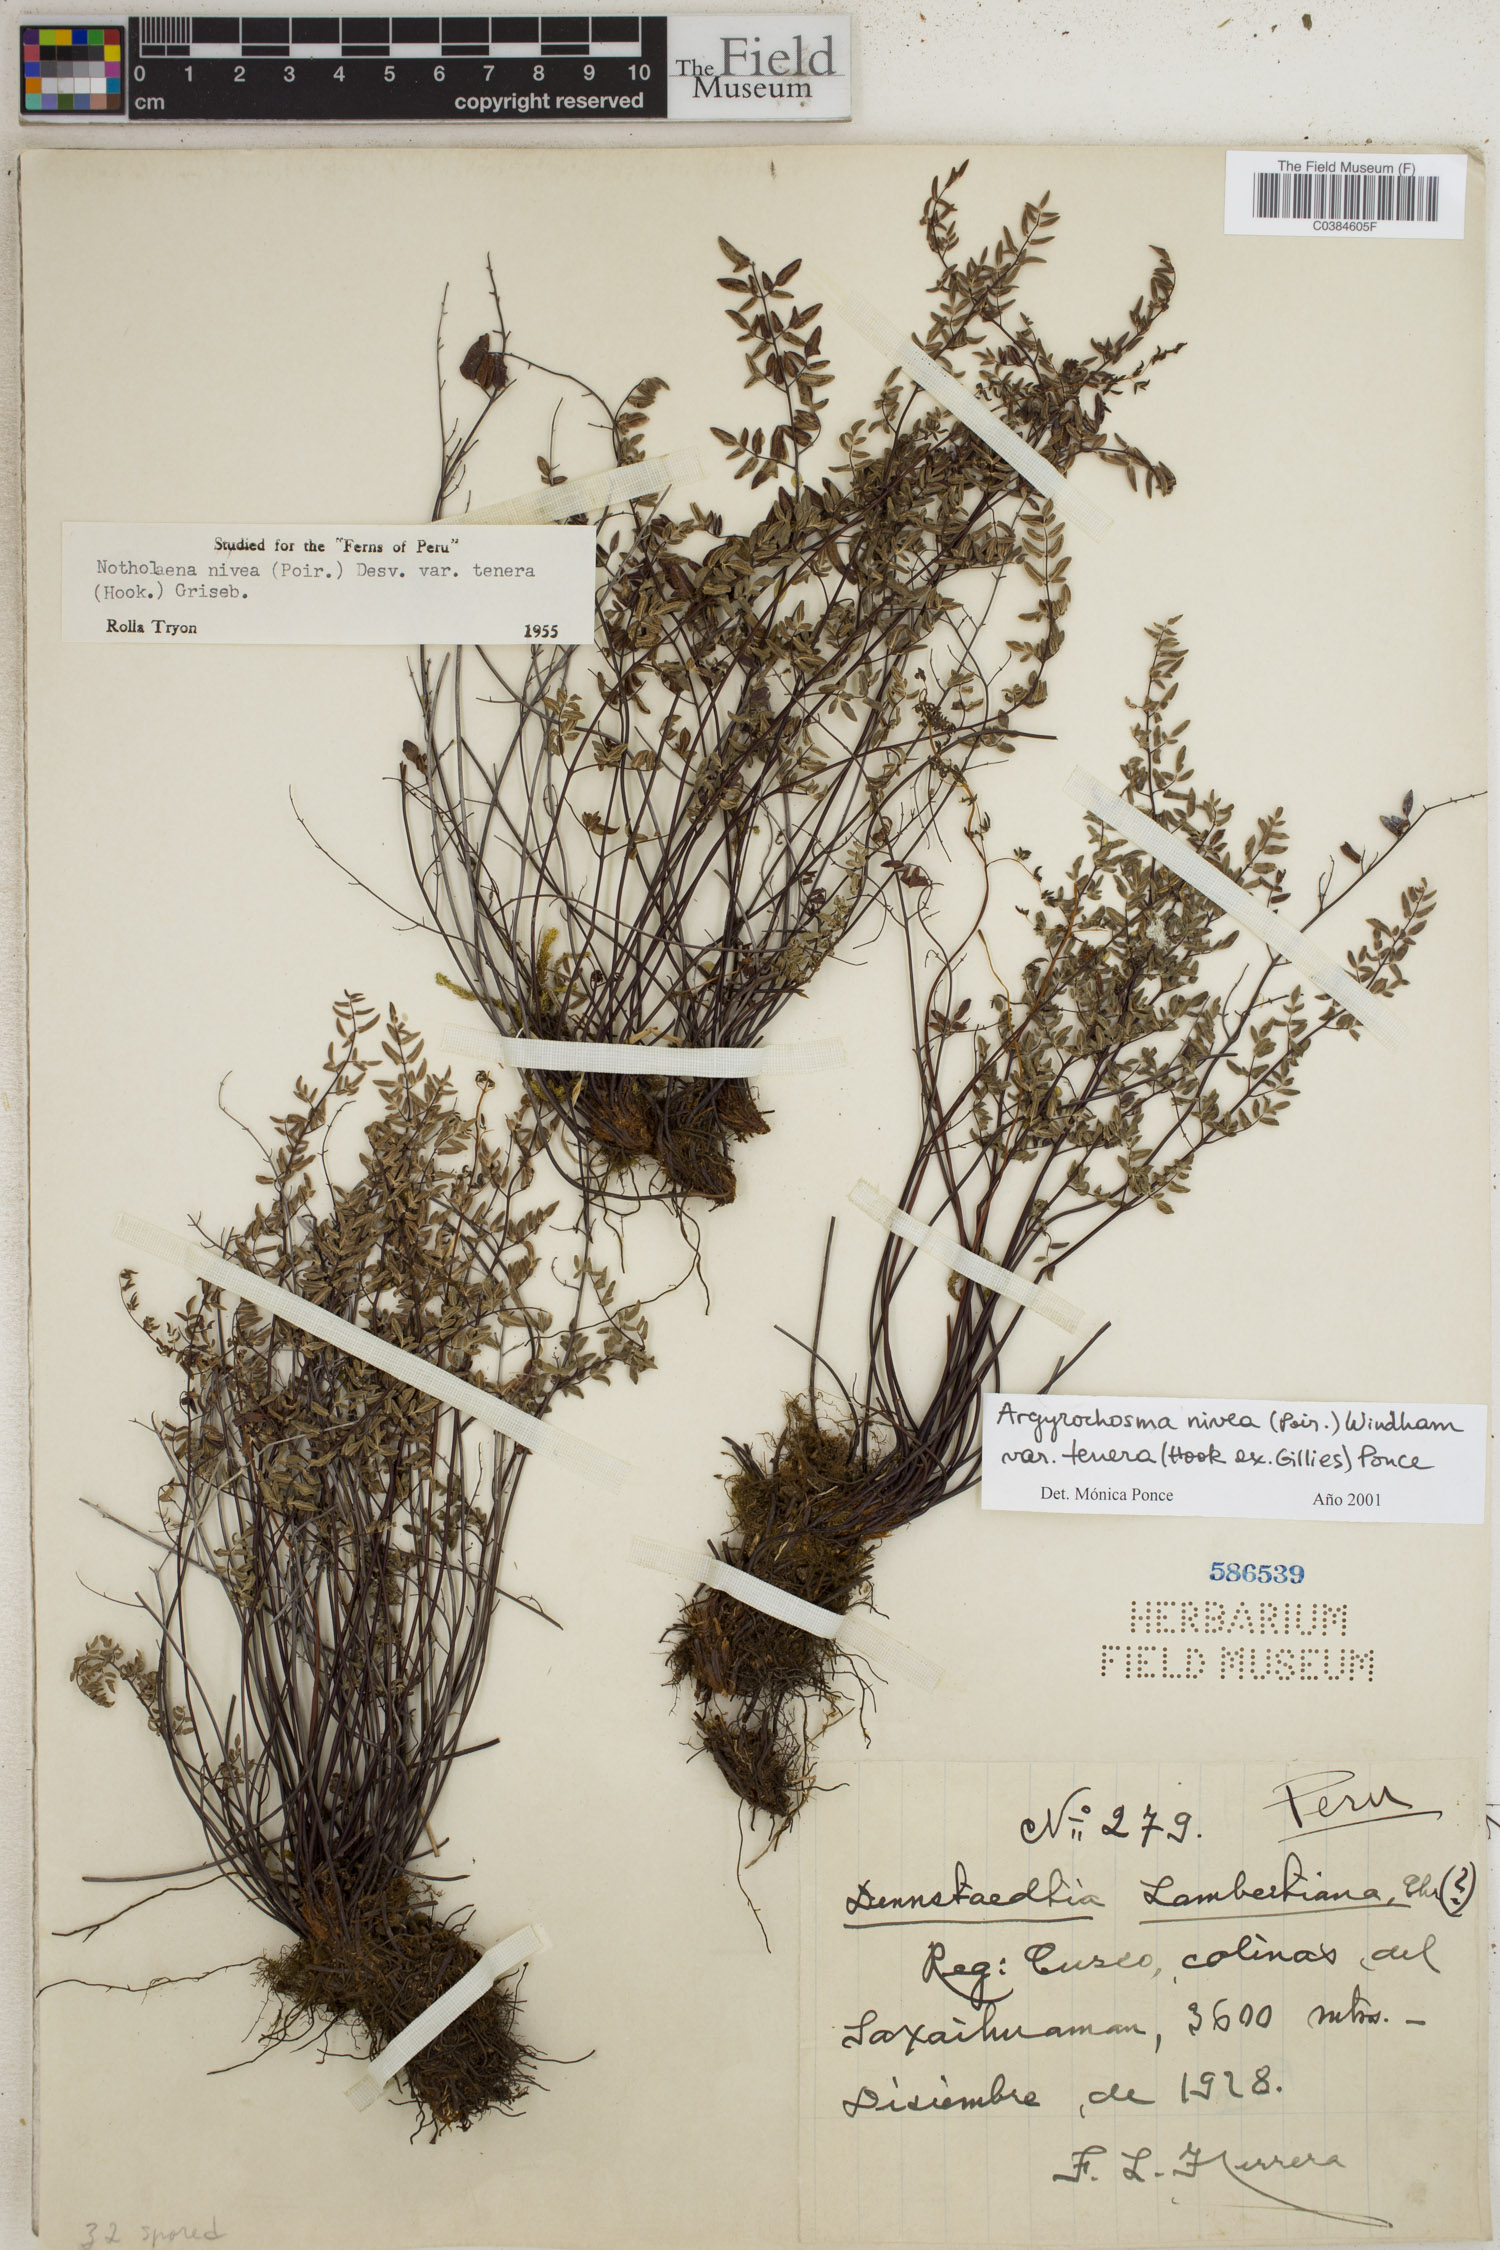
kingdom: Plantae
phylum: Tracheophyta
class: Polypodiopsida
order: Polypodiales
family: Pteridaceae
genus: Argyrochosma
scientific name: Argyrochosma nivea
